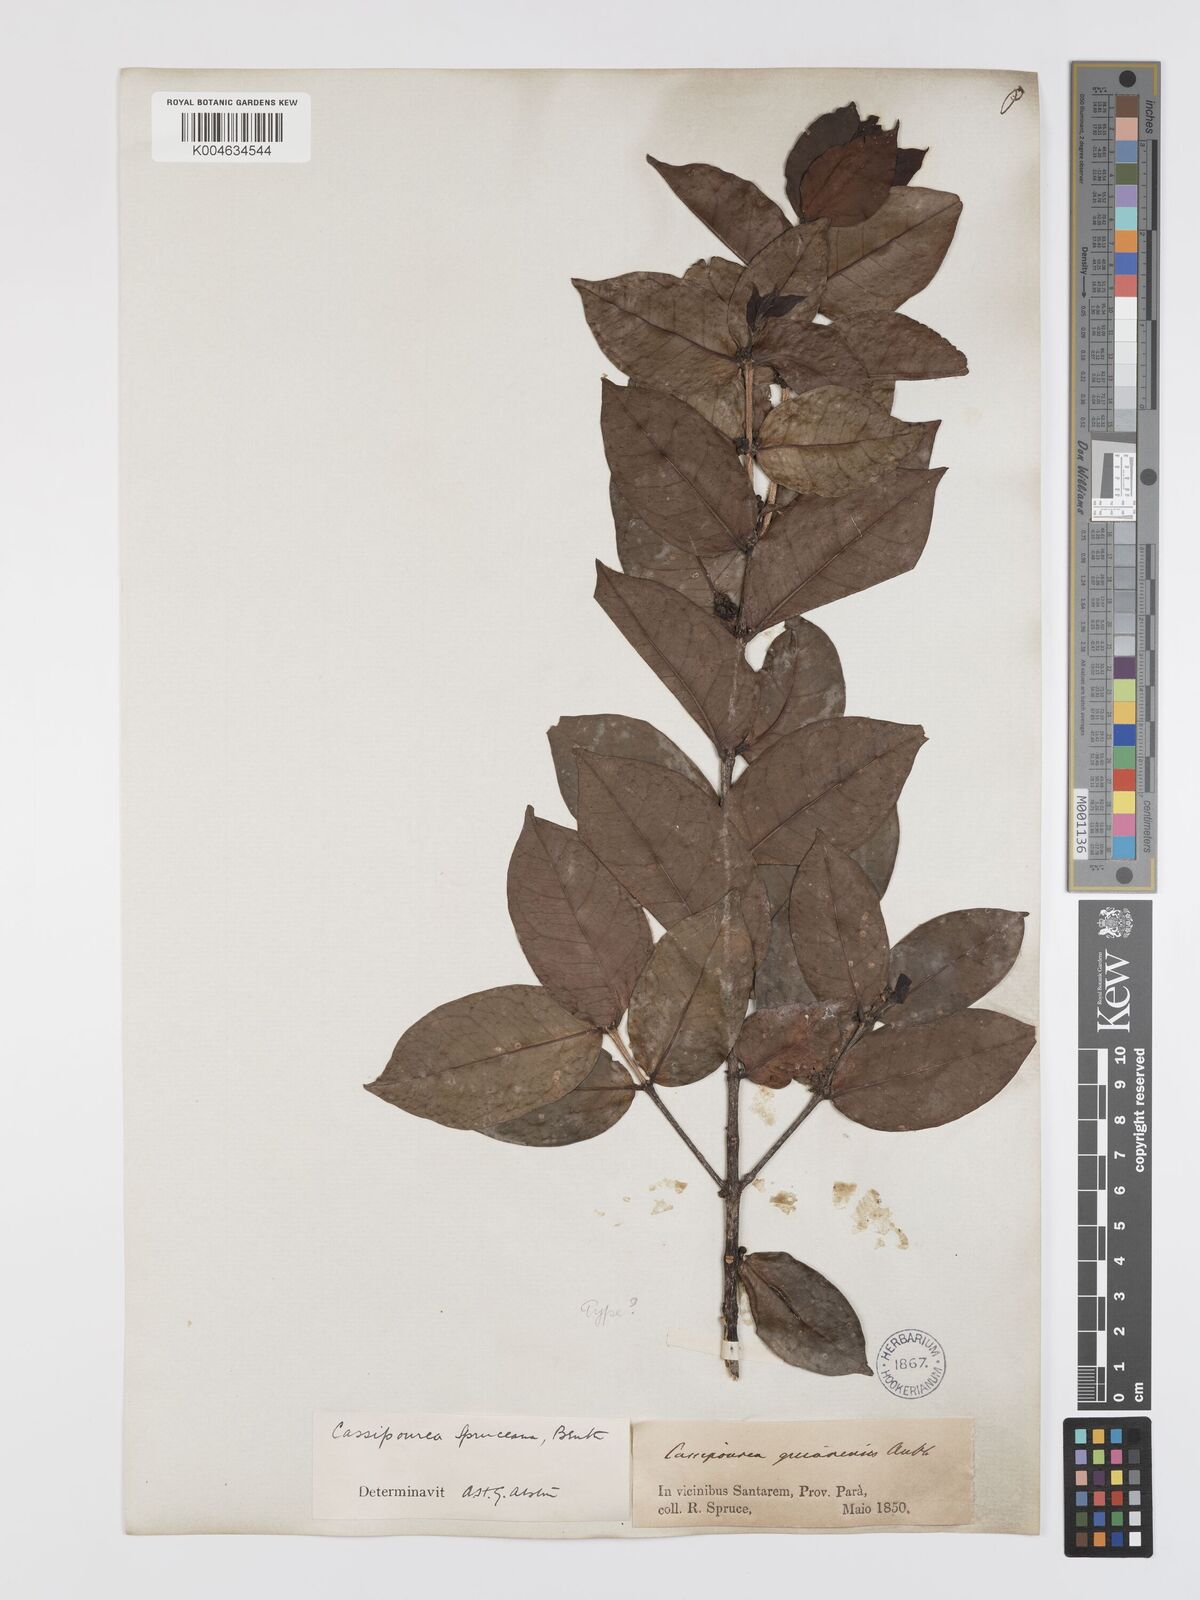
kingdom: Plantae
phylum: Tracheophyta
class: Magnoliopsida
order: Malpighiales
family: Rhizophoraceae
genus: Cassipourea
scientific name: Cassipourea spruceana
